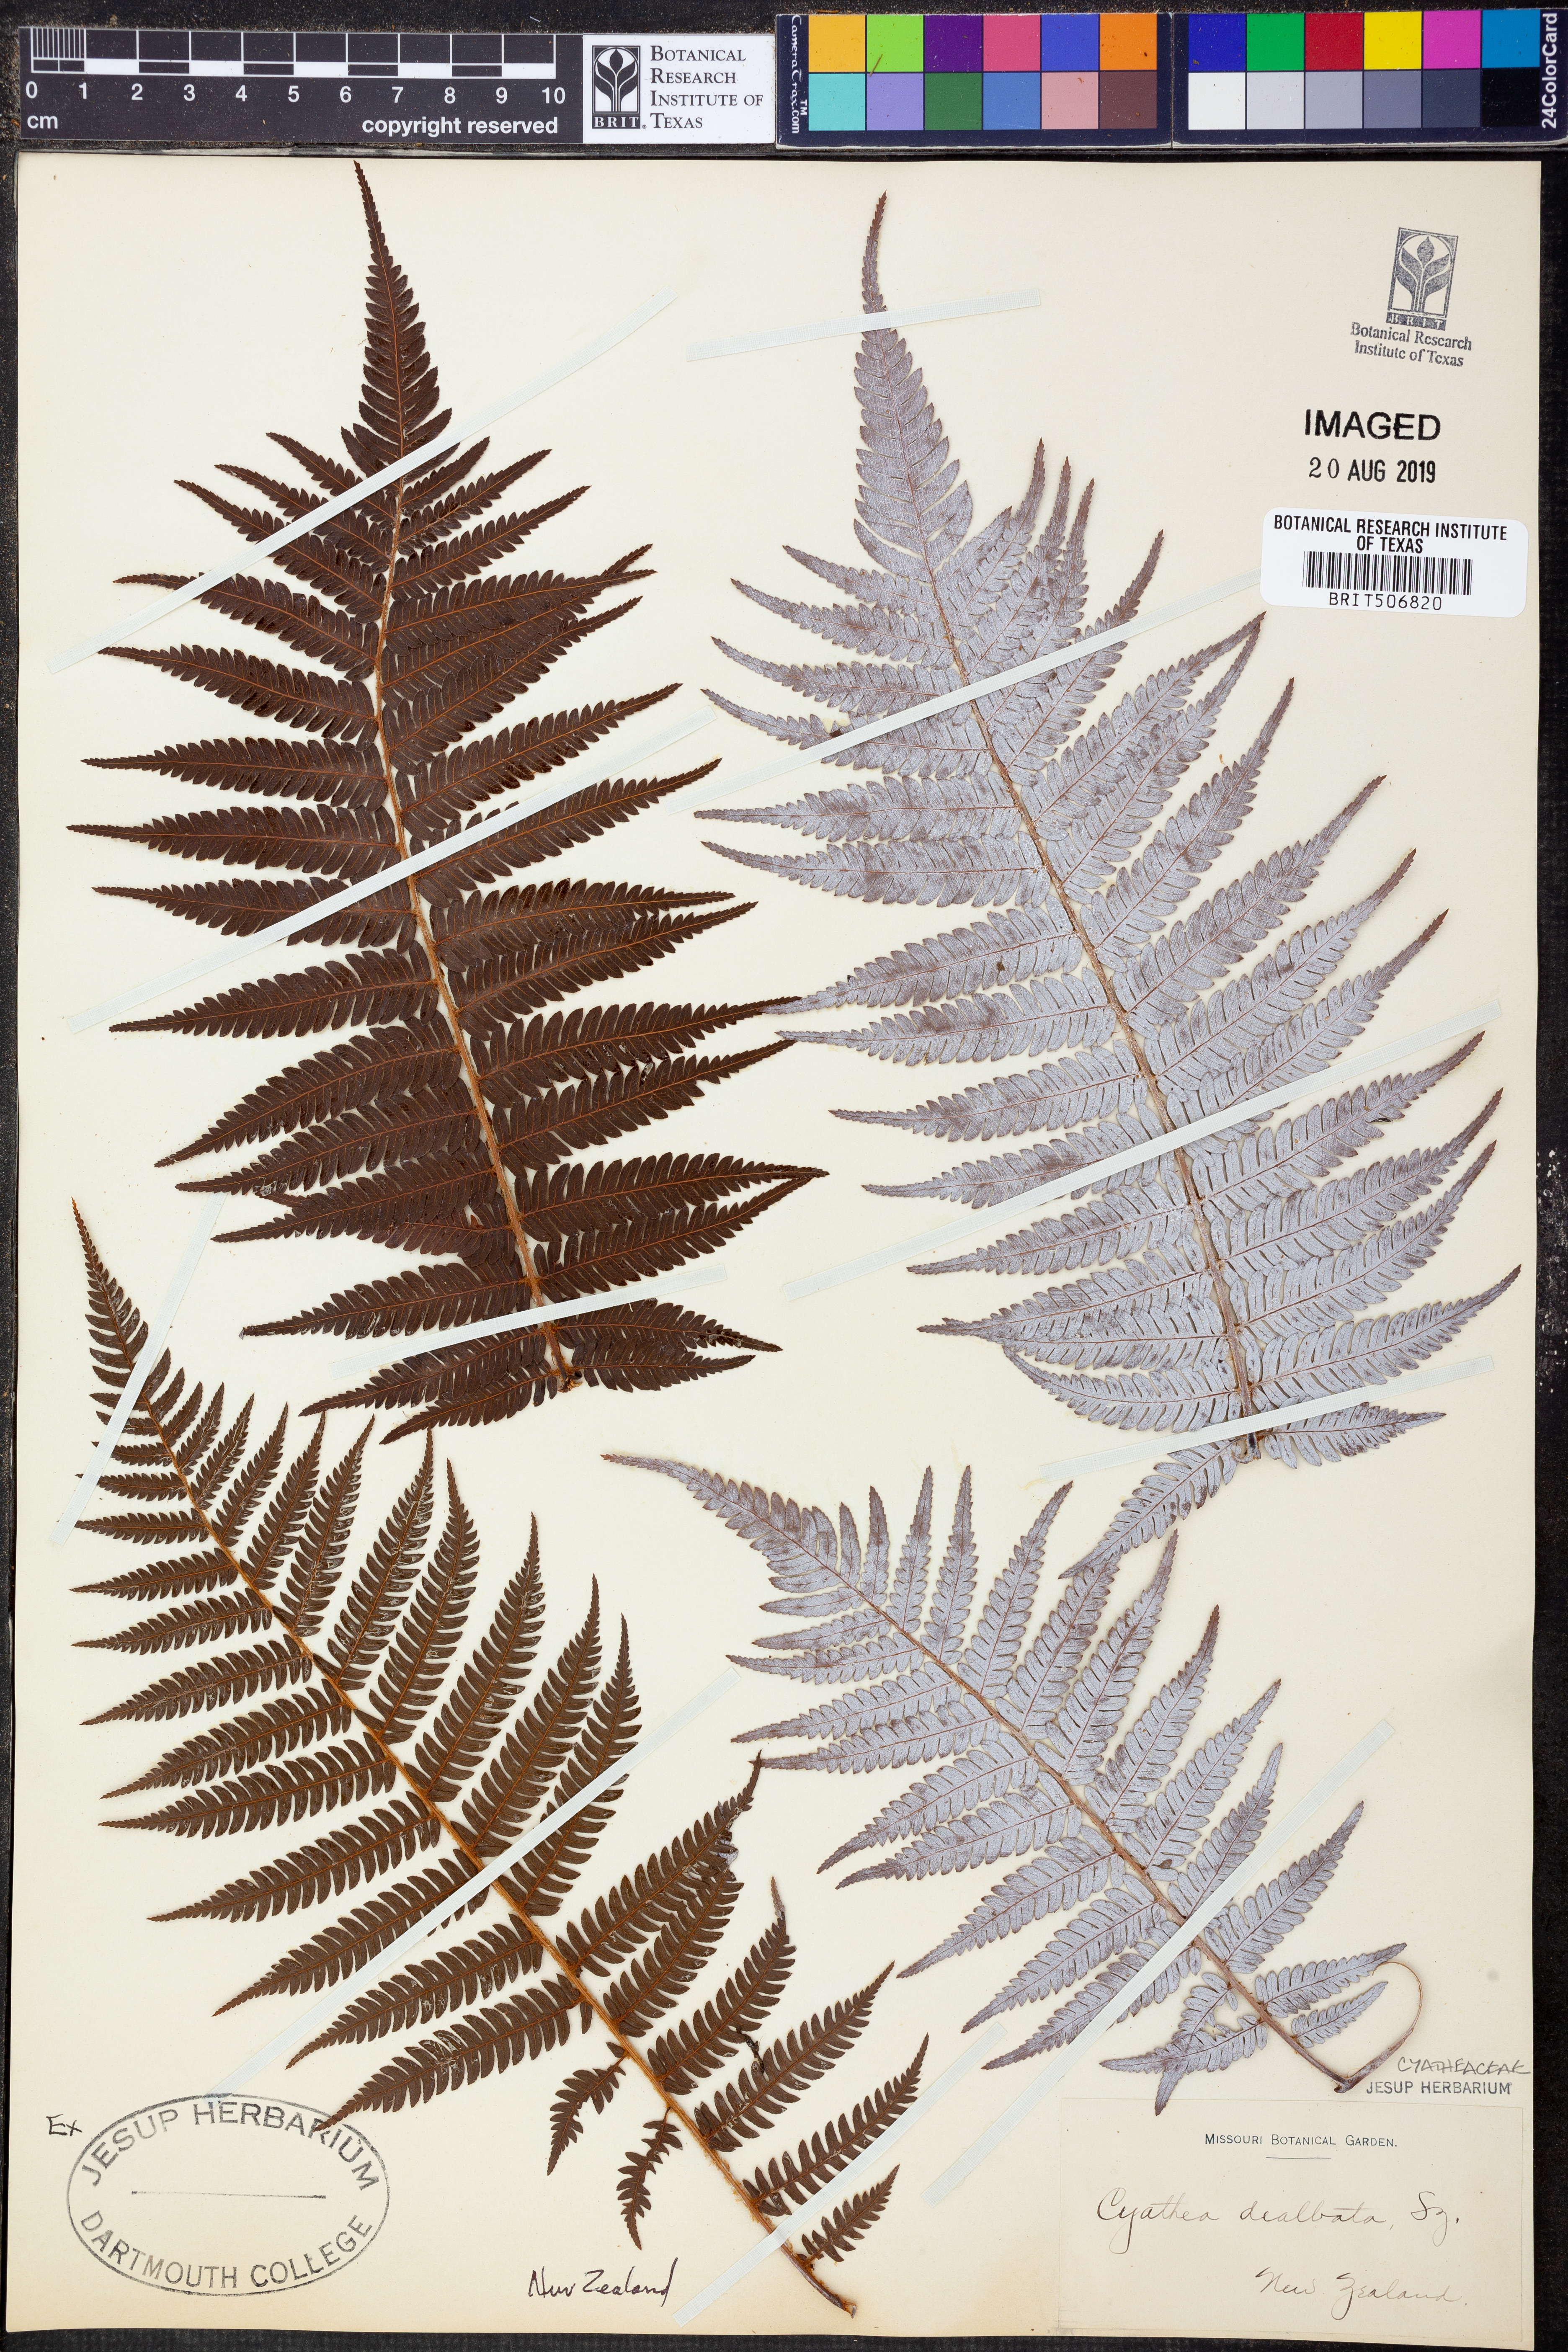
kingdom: Plantae
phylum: Tracheophyta
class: Polypodiopsida
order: Cyatheales
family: Cyatheaceae
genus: Alsophila
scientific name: Alsophila dealbata
